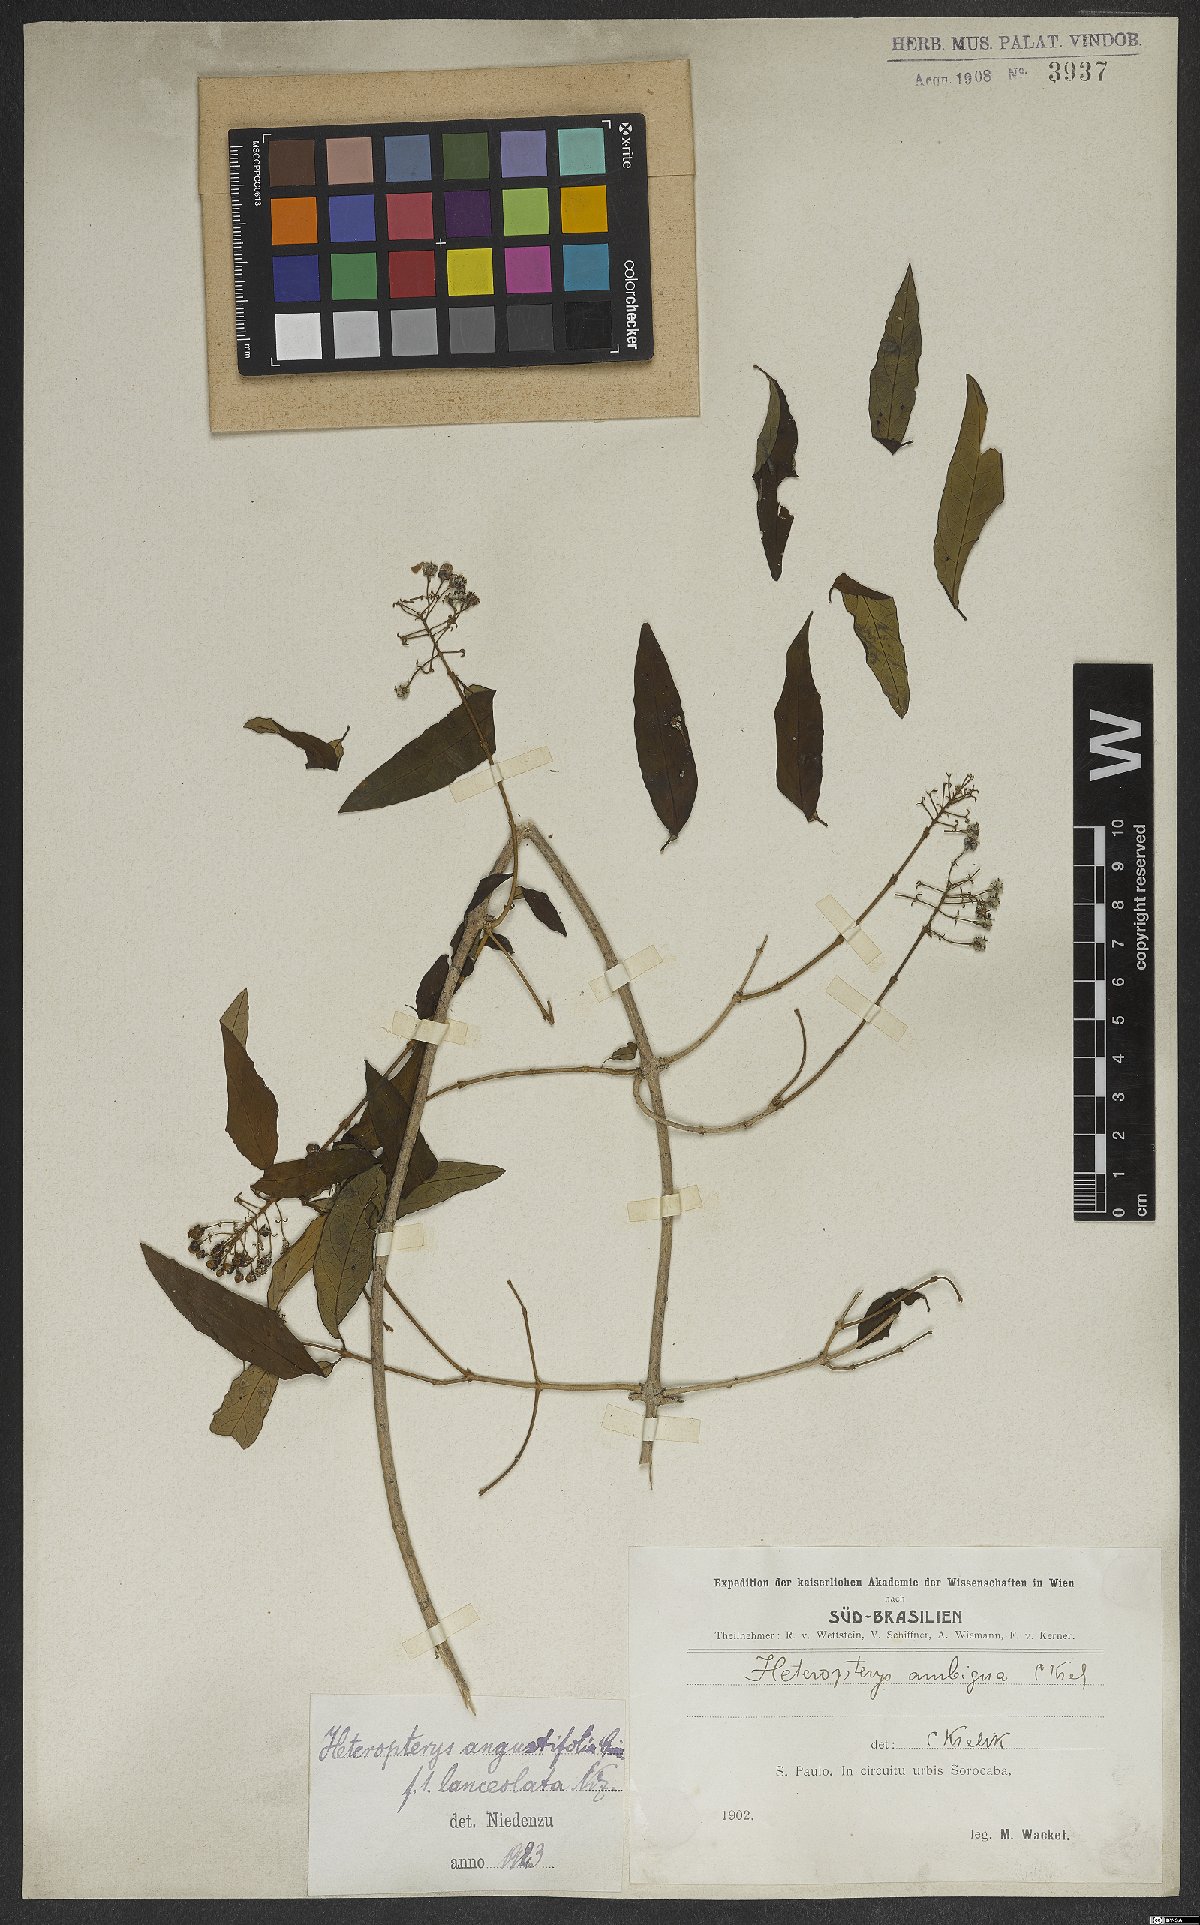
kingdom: Plantae
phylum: Tracheophyta
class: Magnoliopsida
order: Malpighiales
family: Malpighiaceae
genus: Heteropterys
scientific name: Heteropterys glabra
